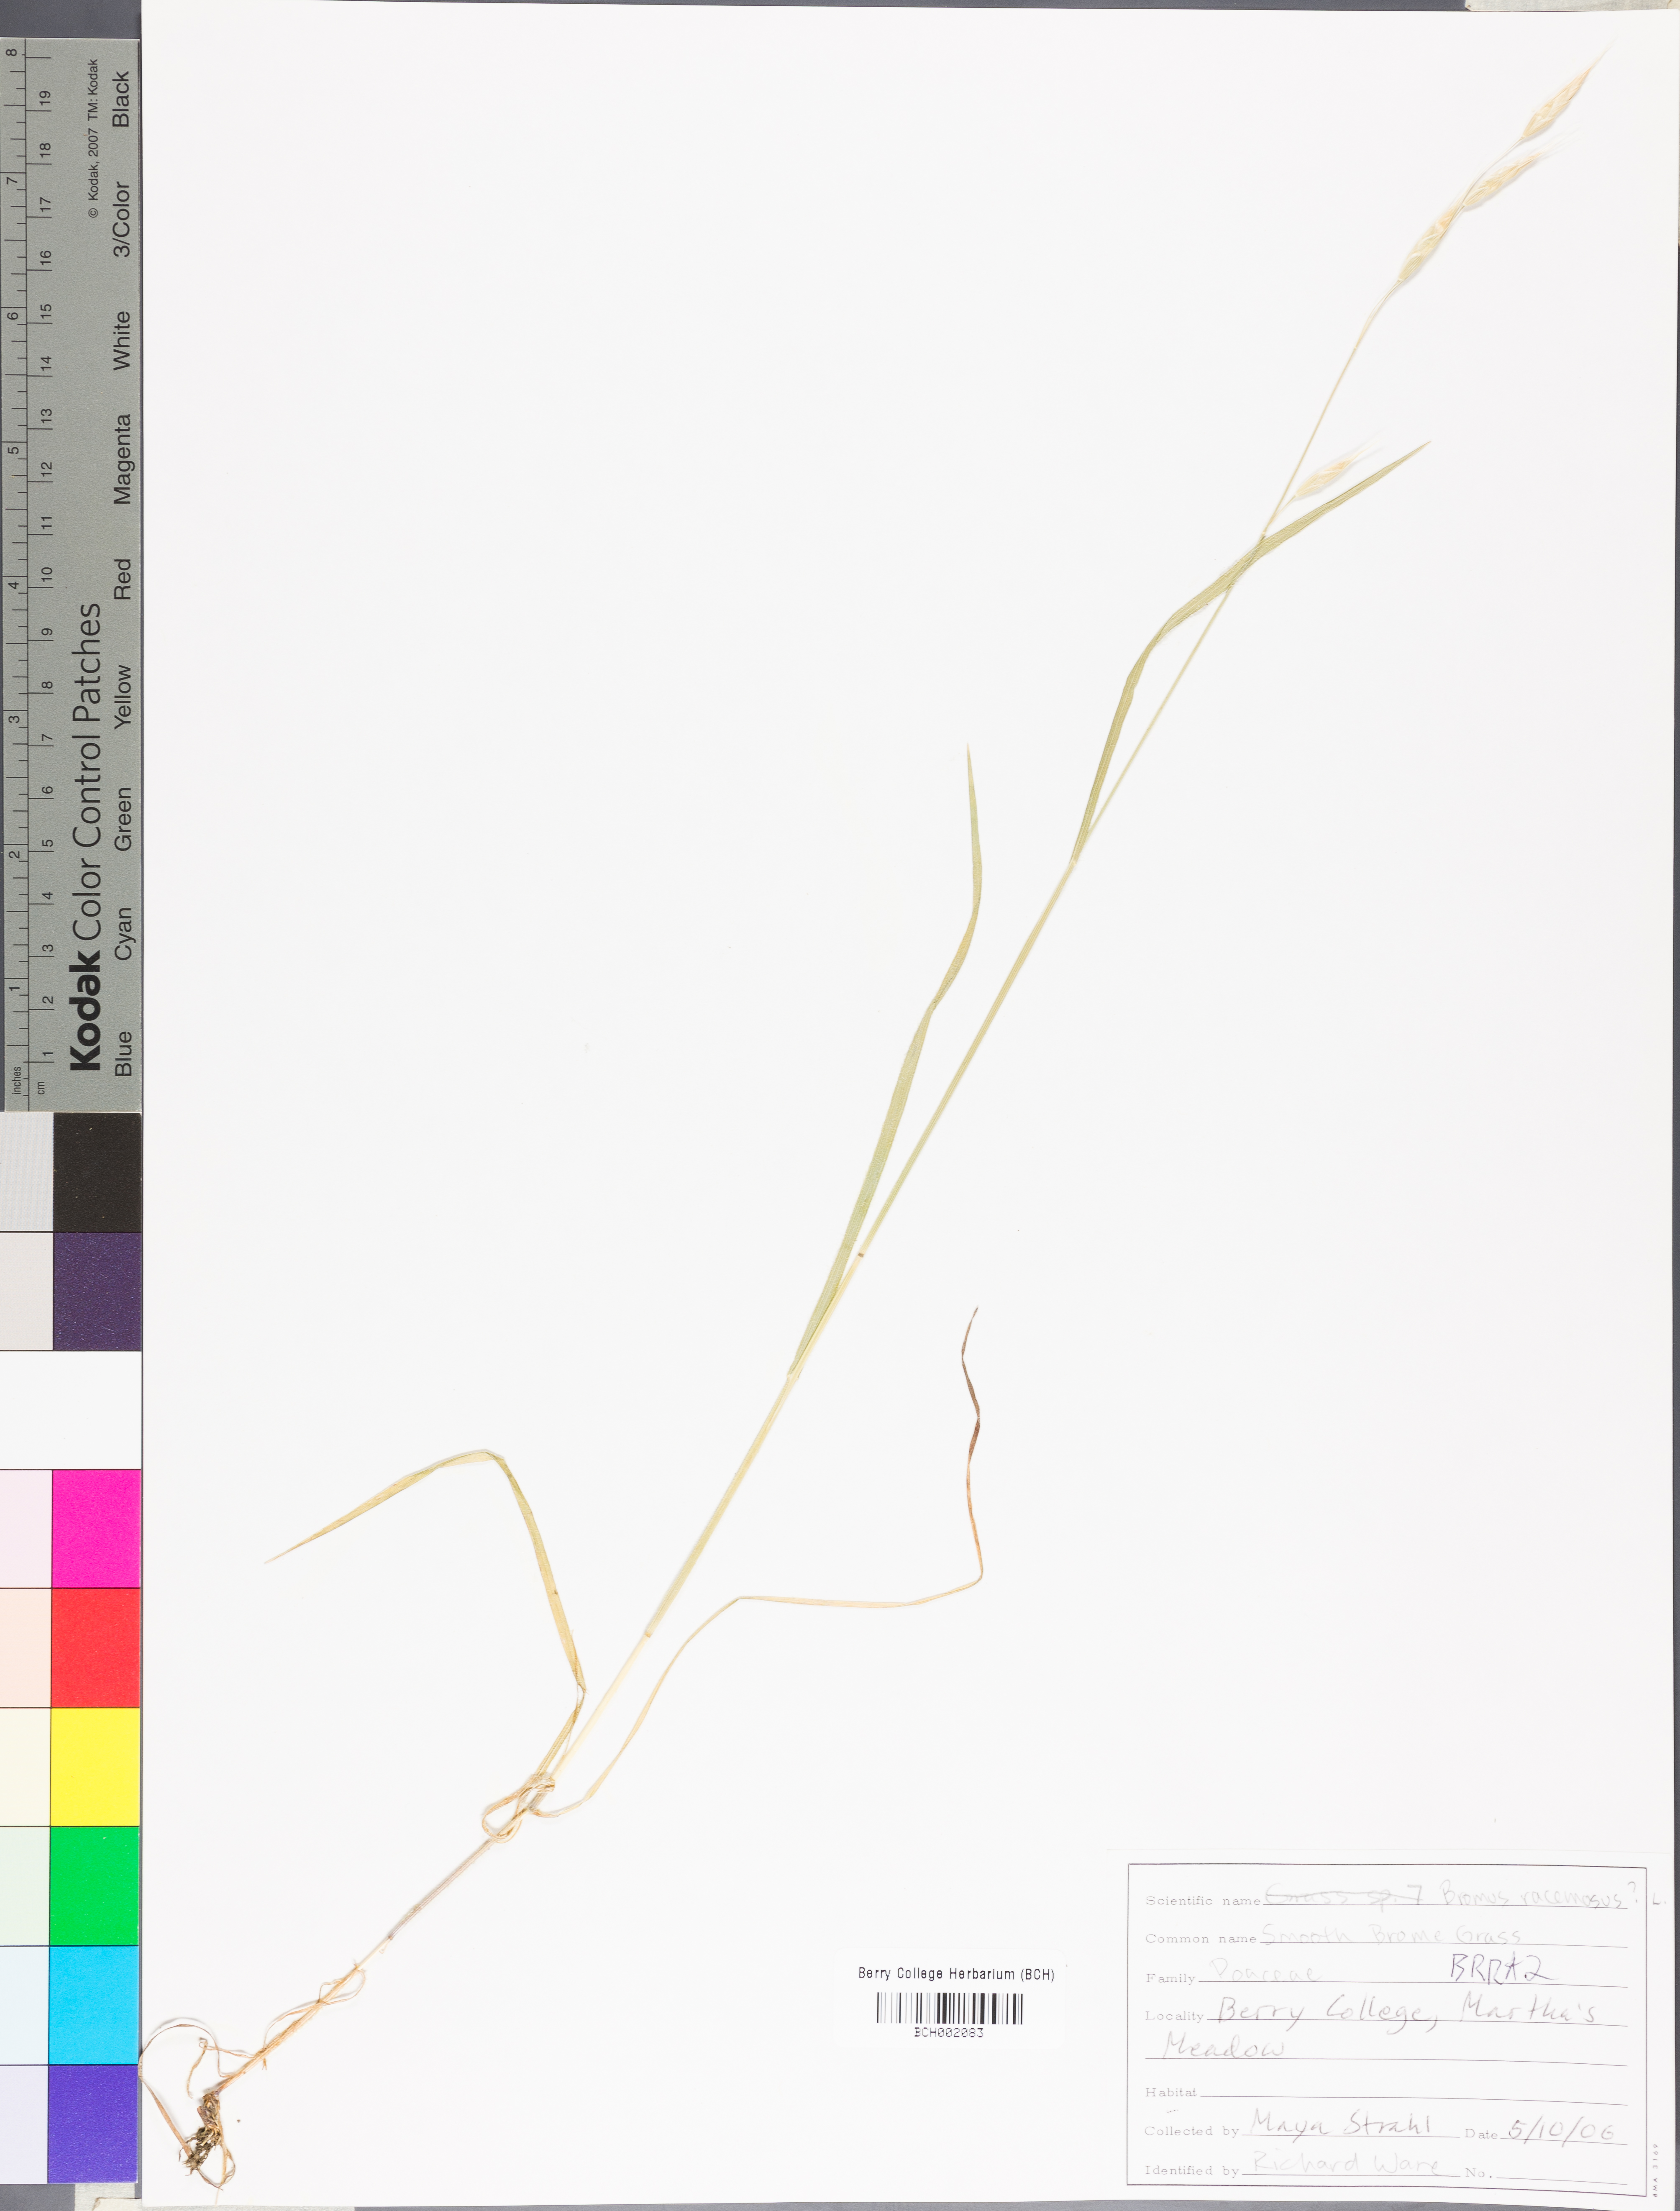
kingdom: Plantae
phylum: Tracheophyta
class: Liliopsida
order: Poales
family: Poaceae
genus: Bromus
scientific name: Bromus racemosus
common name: Bald brome
